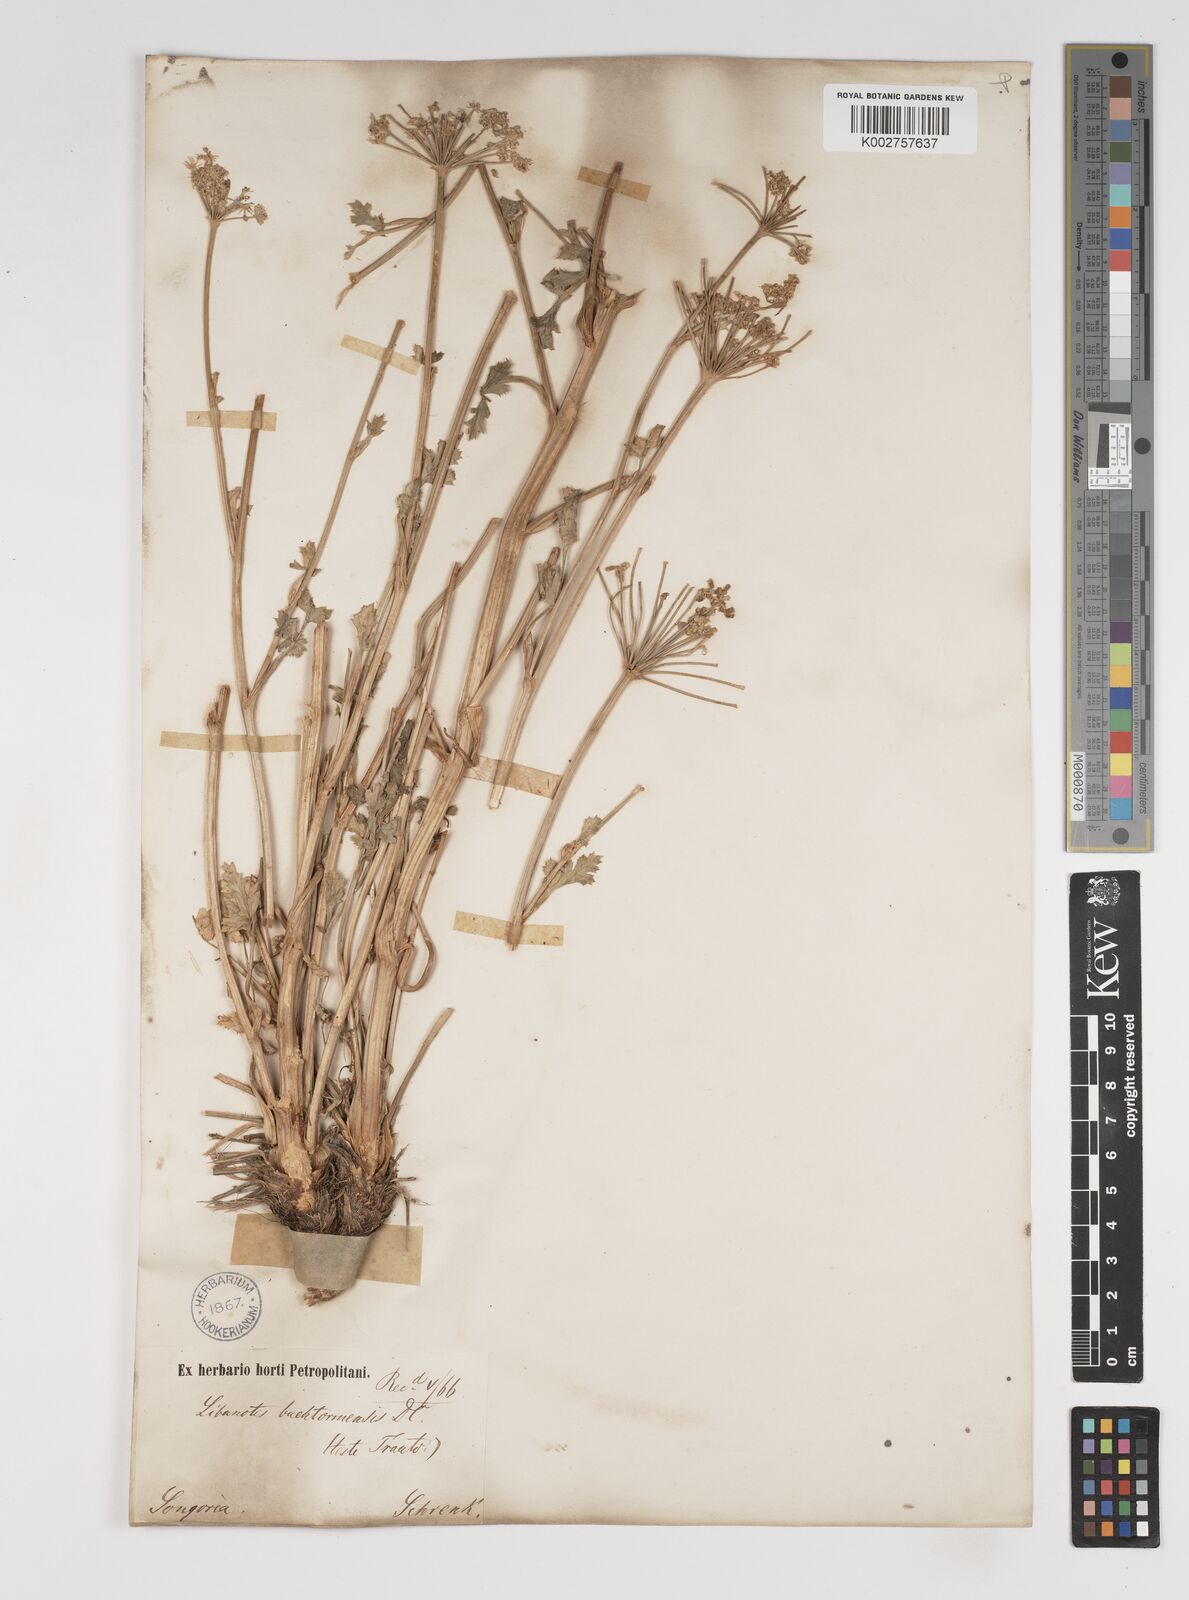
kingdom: Plantae
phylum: Tracheophyta
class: Magnoliopsida
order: Apiales
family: Apiaceae
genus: Seseli
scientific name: Seseli buchtormense
